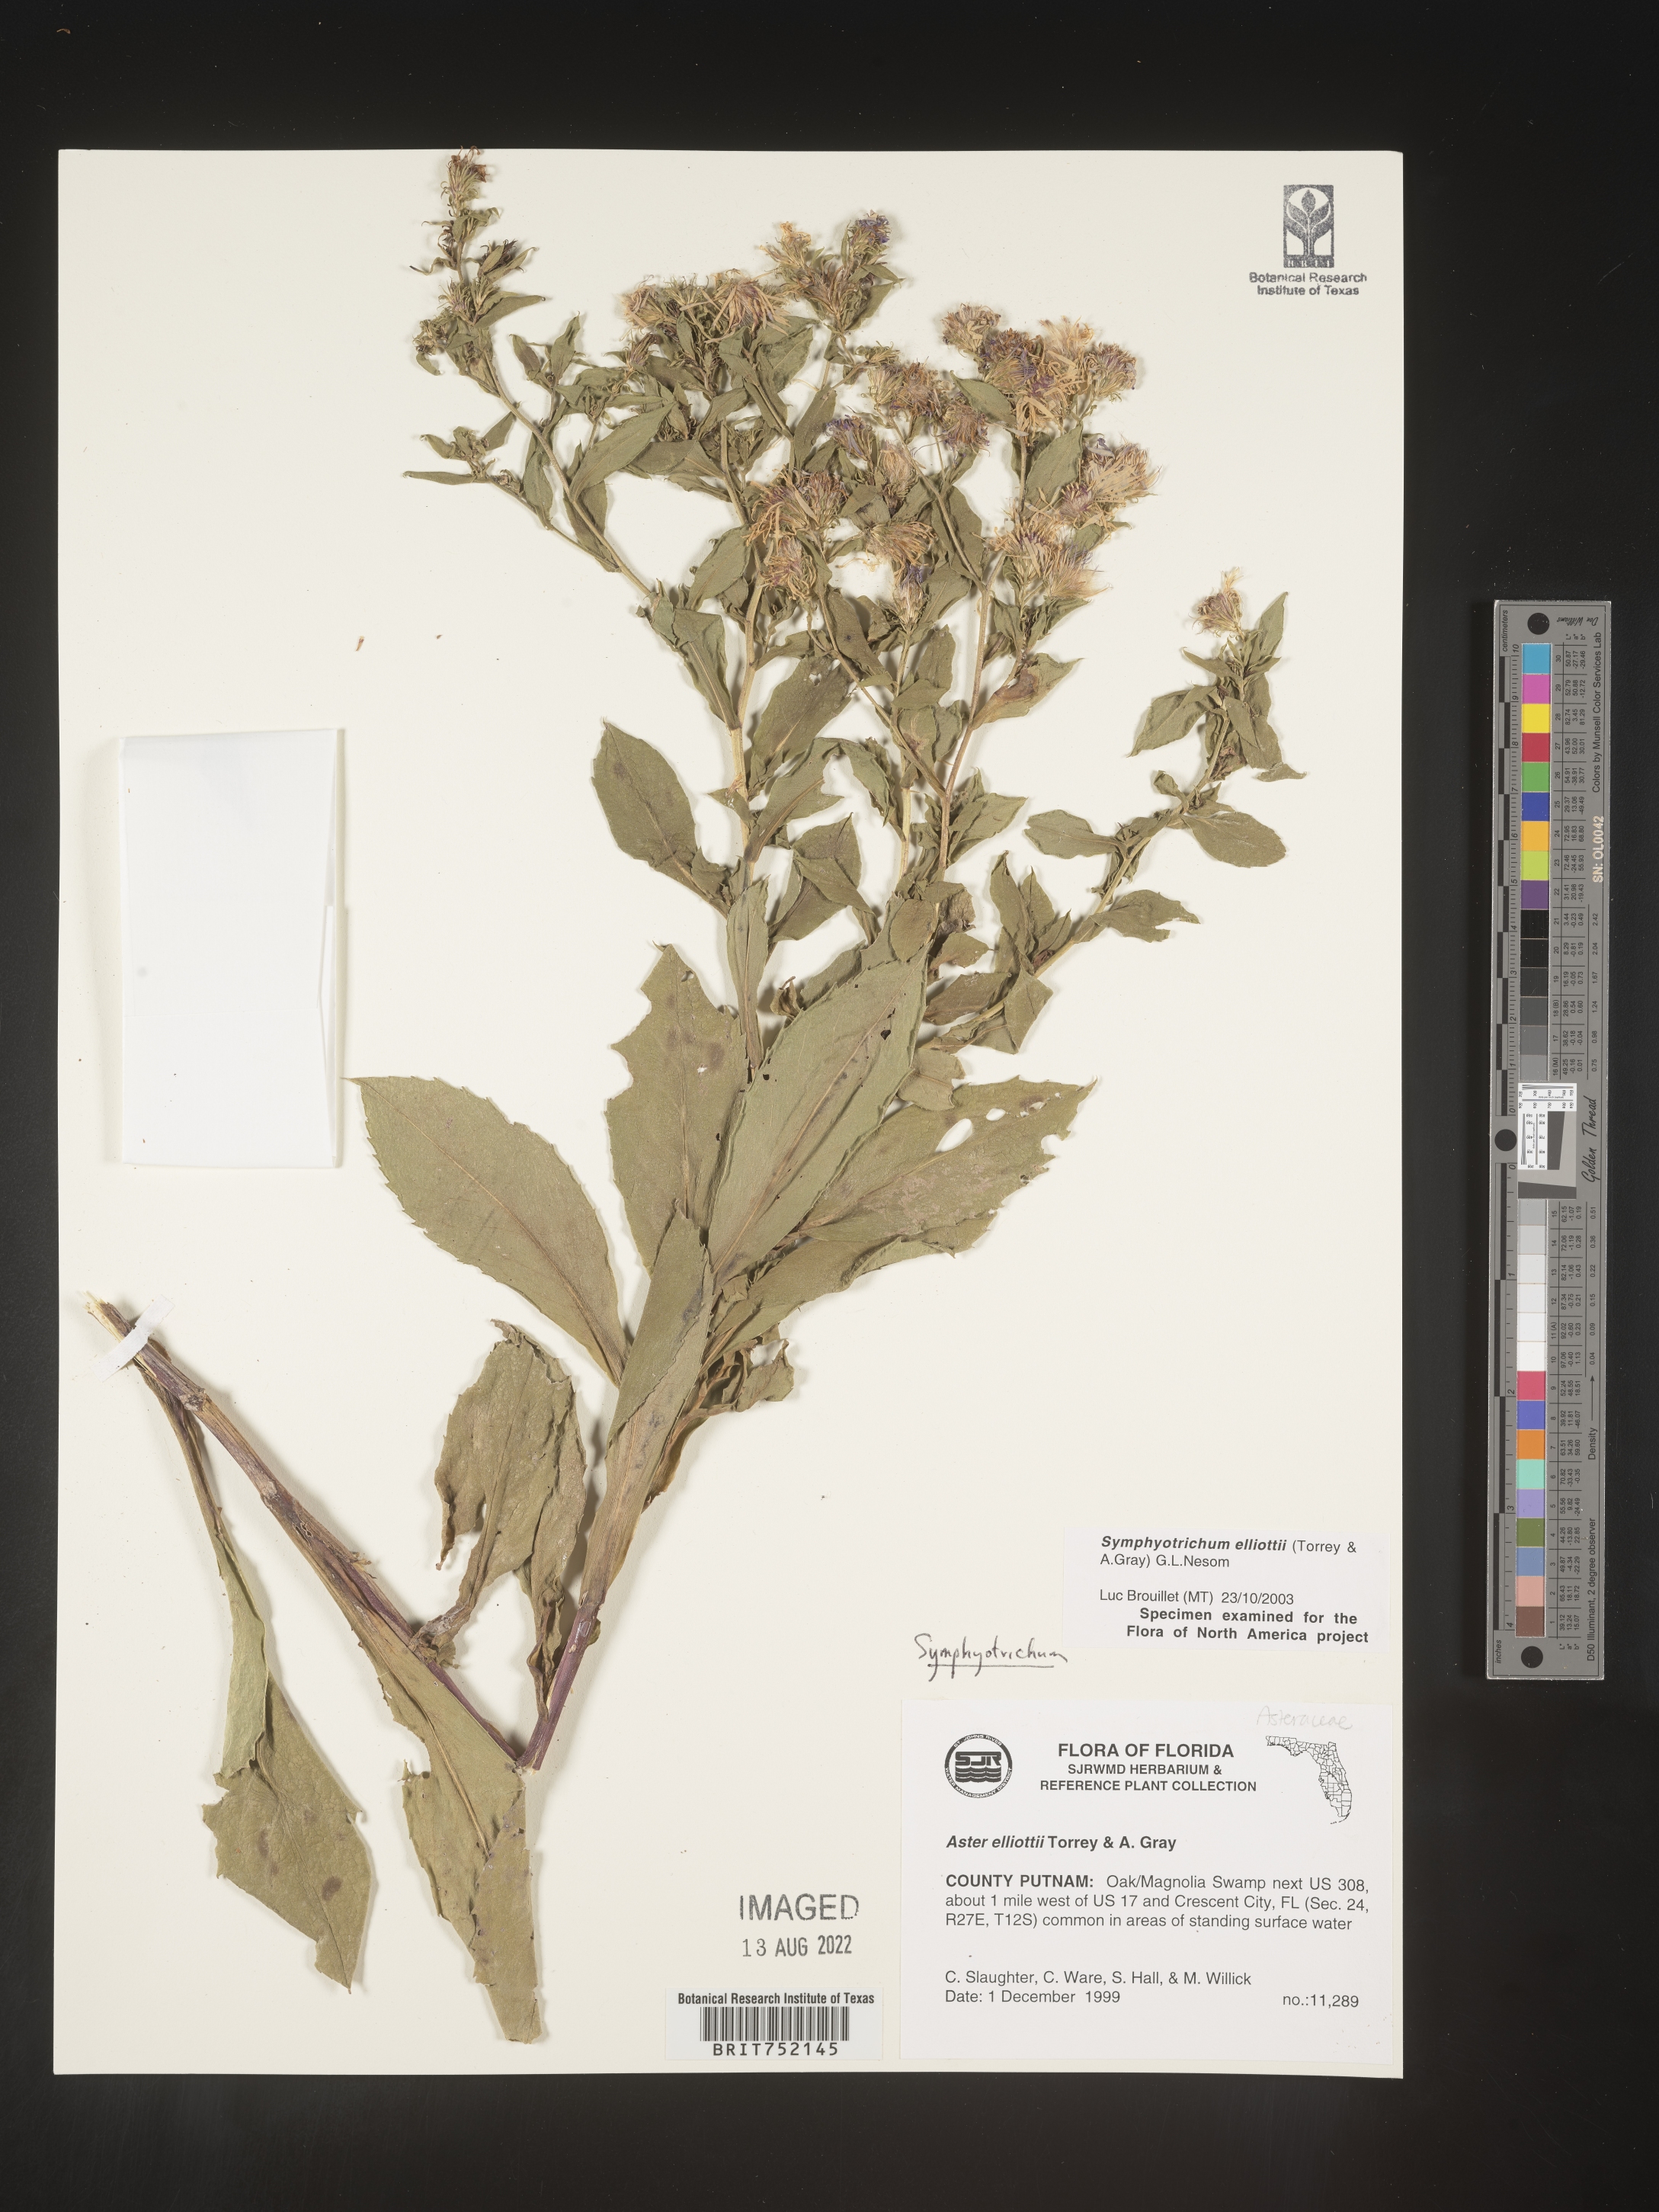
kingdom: Plantae
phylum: Tracheophyta
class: Magnoliopsida
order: Asterales
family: Asteraceae
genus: Symphyotrichum
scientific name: Symphyotrichum elliottii
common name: Southern swamp aster
